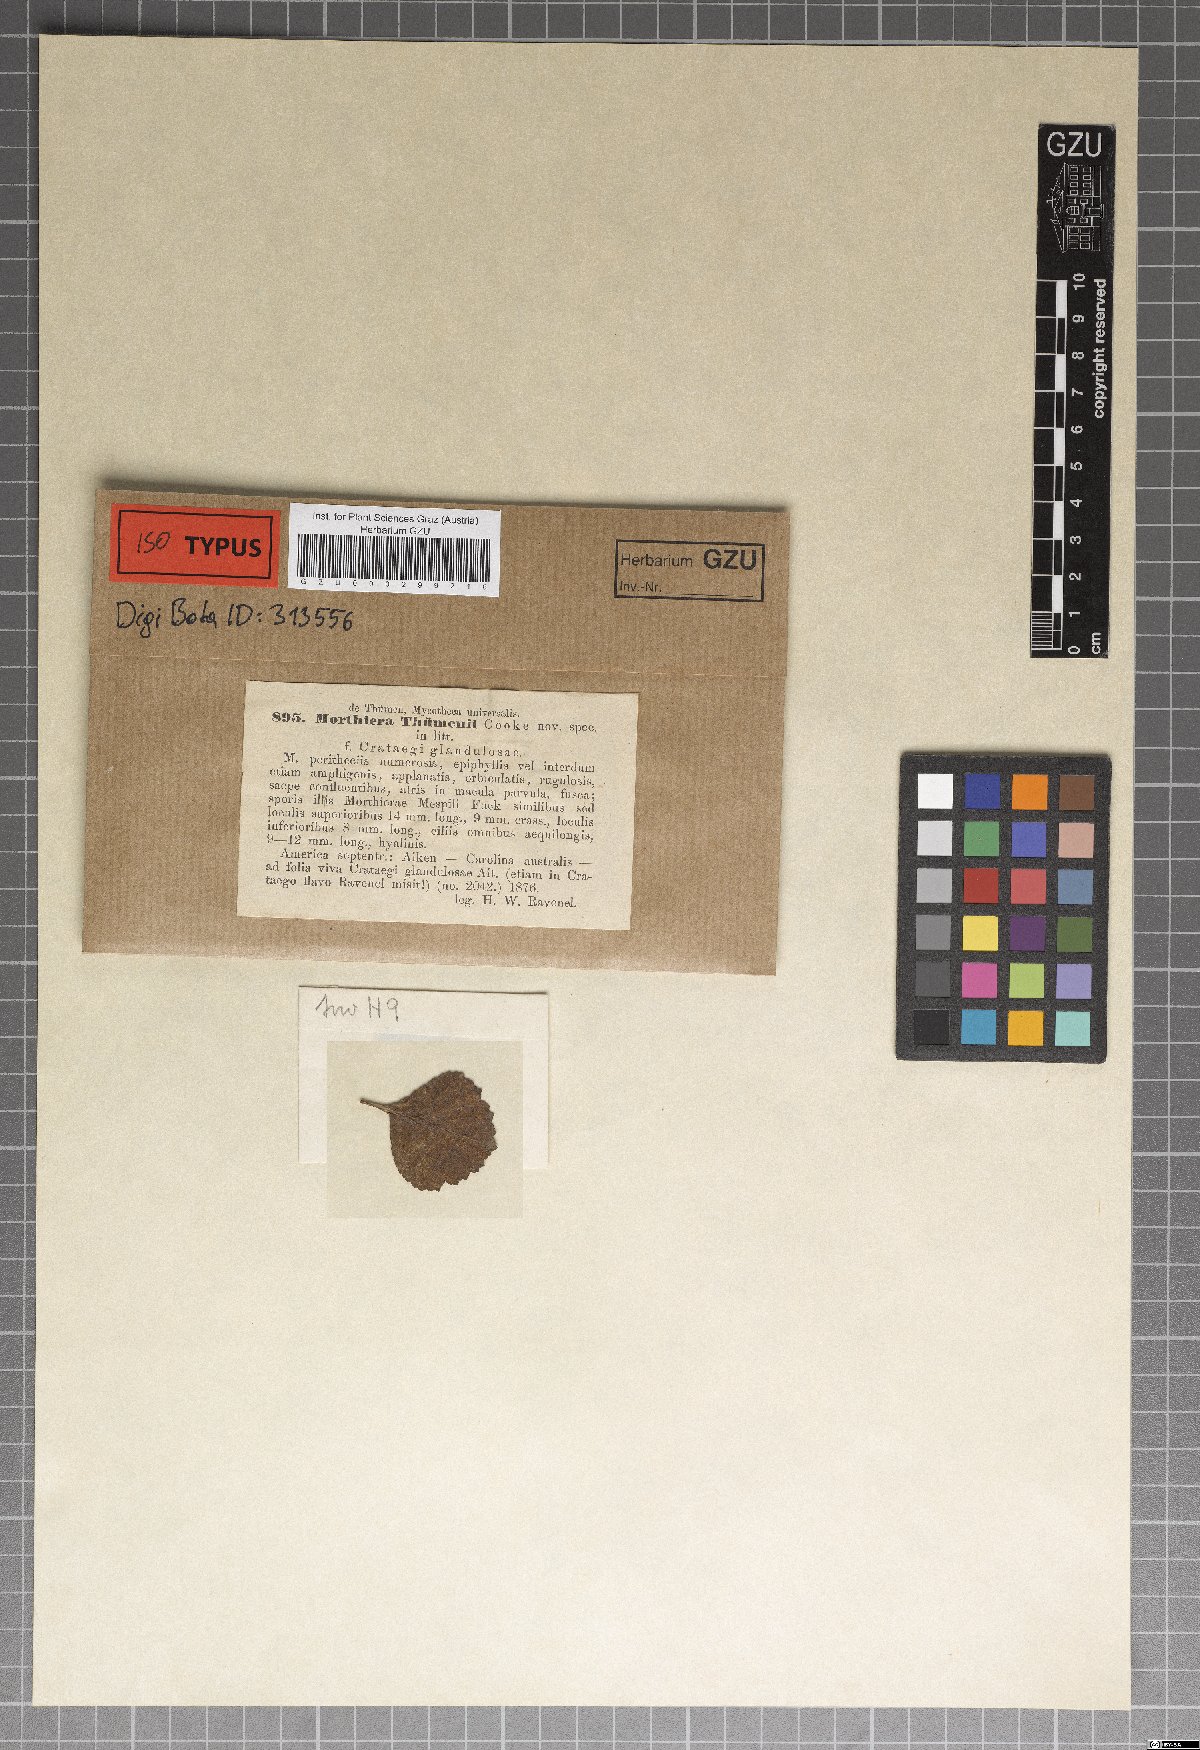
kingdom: Fungi
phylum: Ascomycota
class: Leotiomycetes
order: Helotiales
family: Drepanopezizaceae
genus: Entomosporium
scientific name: Entomosporium thuemenii
